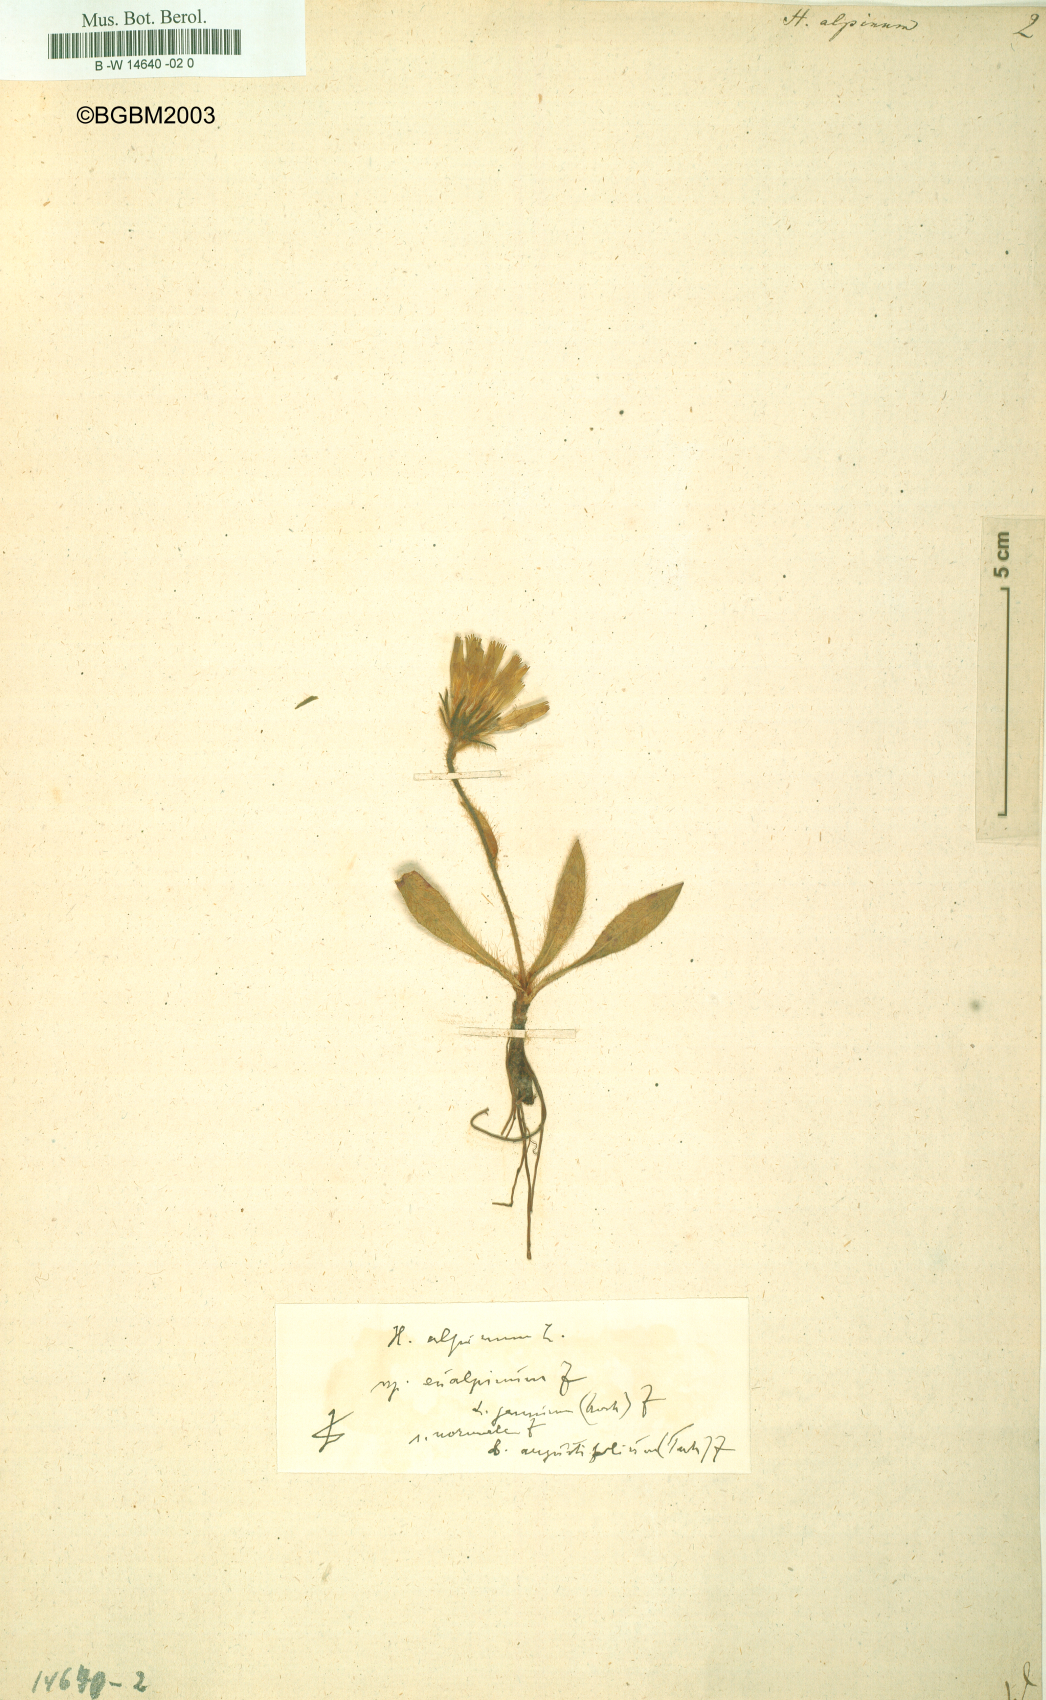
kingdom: Plantae
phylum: Tracheophyta
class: Magnoliopsida
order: Asterales
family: Asteraceae
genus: Hieracium
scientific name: Hieracium alpinum
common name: Alpine hawkweed
